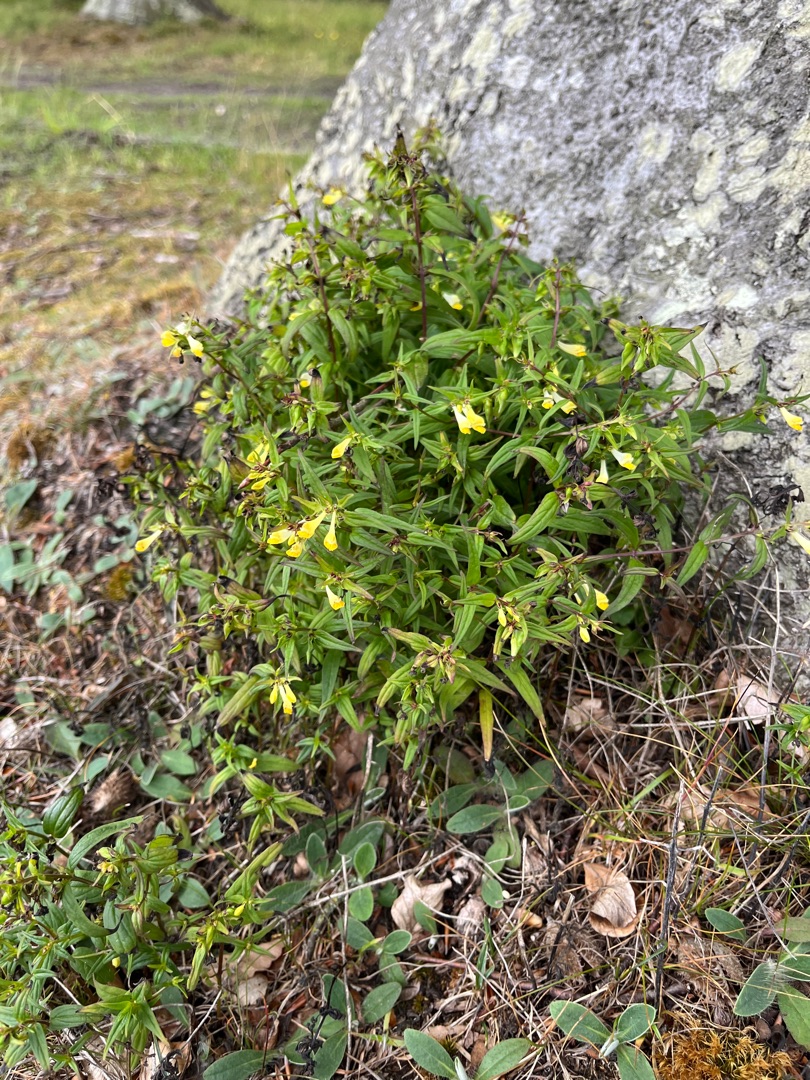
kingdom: Plantae
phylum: Tracheophyta
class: Magnoliopsida
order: Lamiales
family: Orobanchaceae
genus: Melampyrum
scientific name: Melampyrum pratense
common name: Almindelig kohvede
